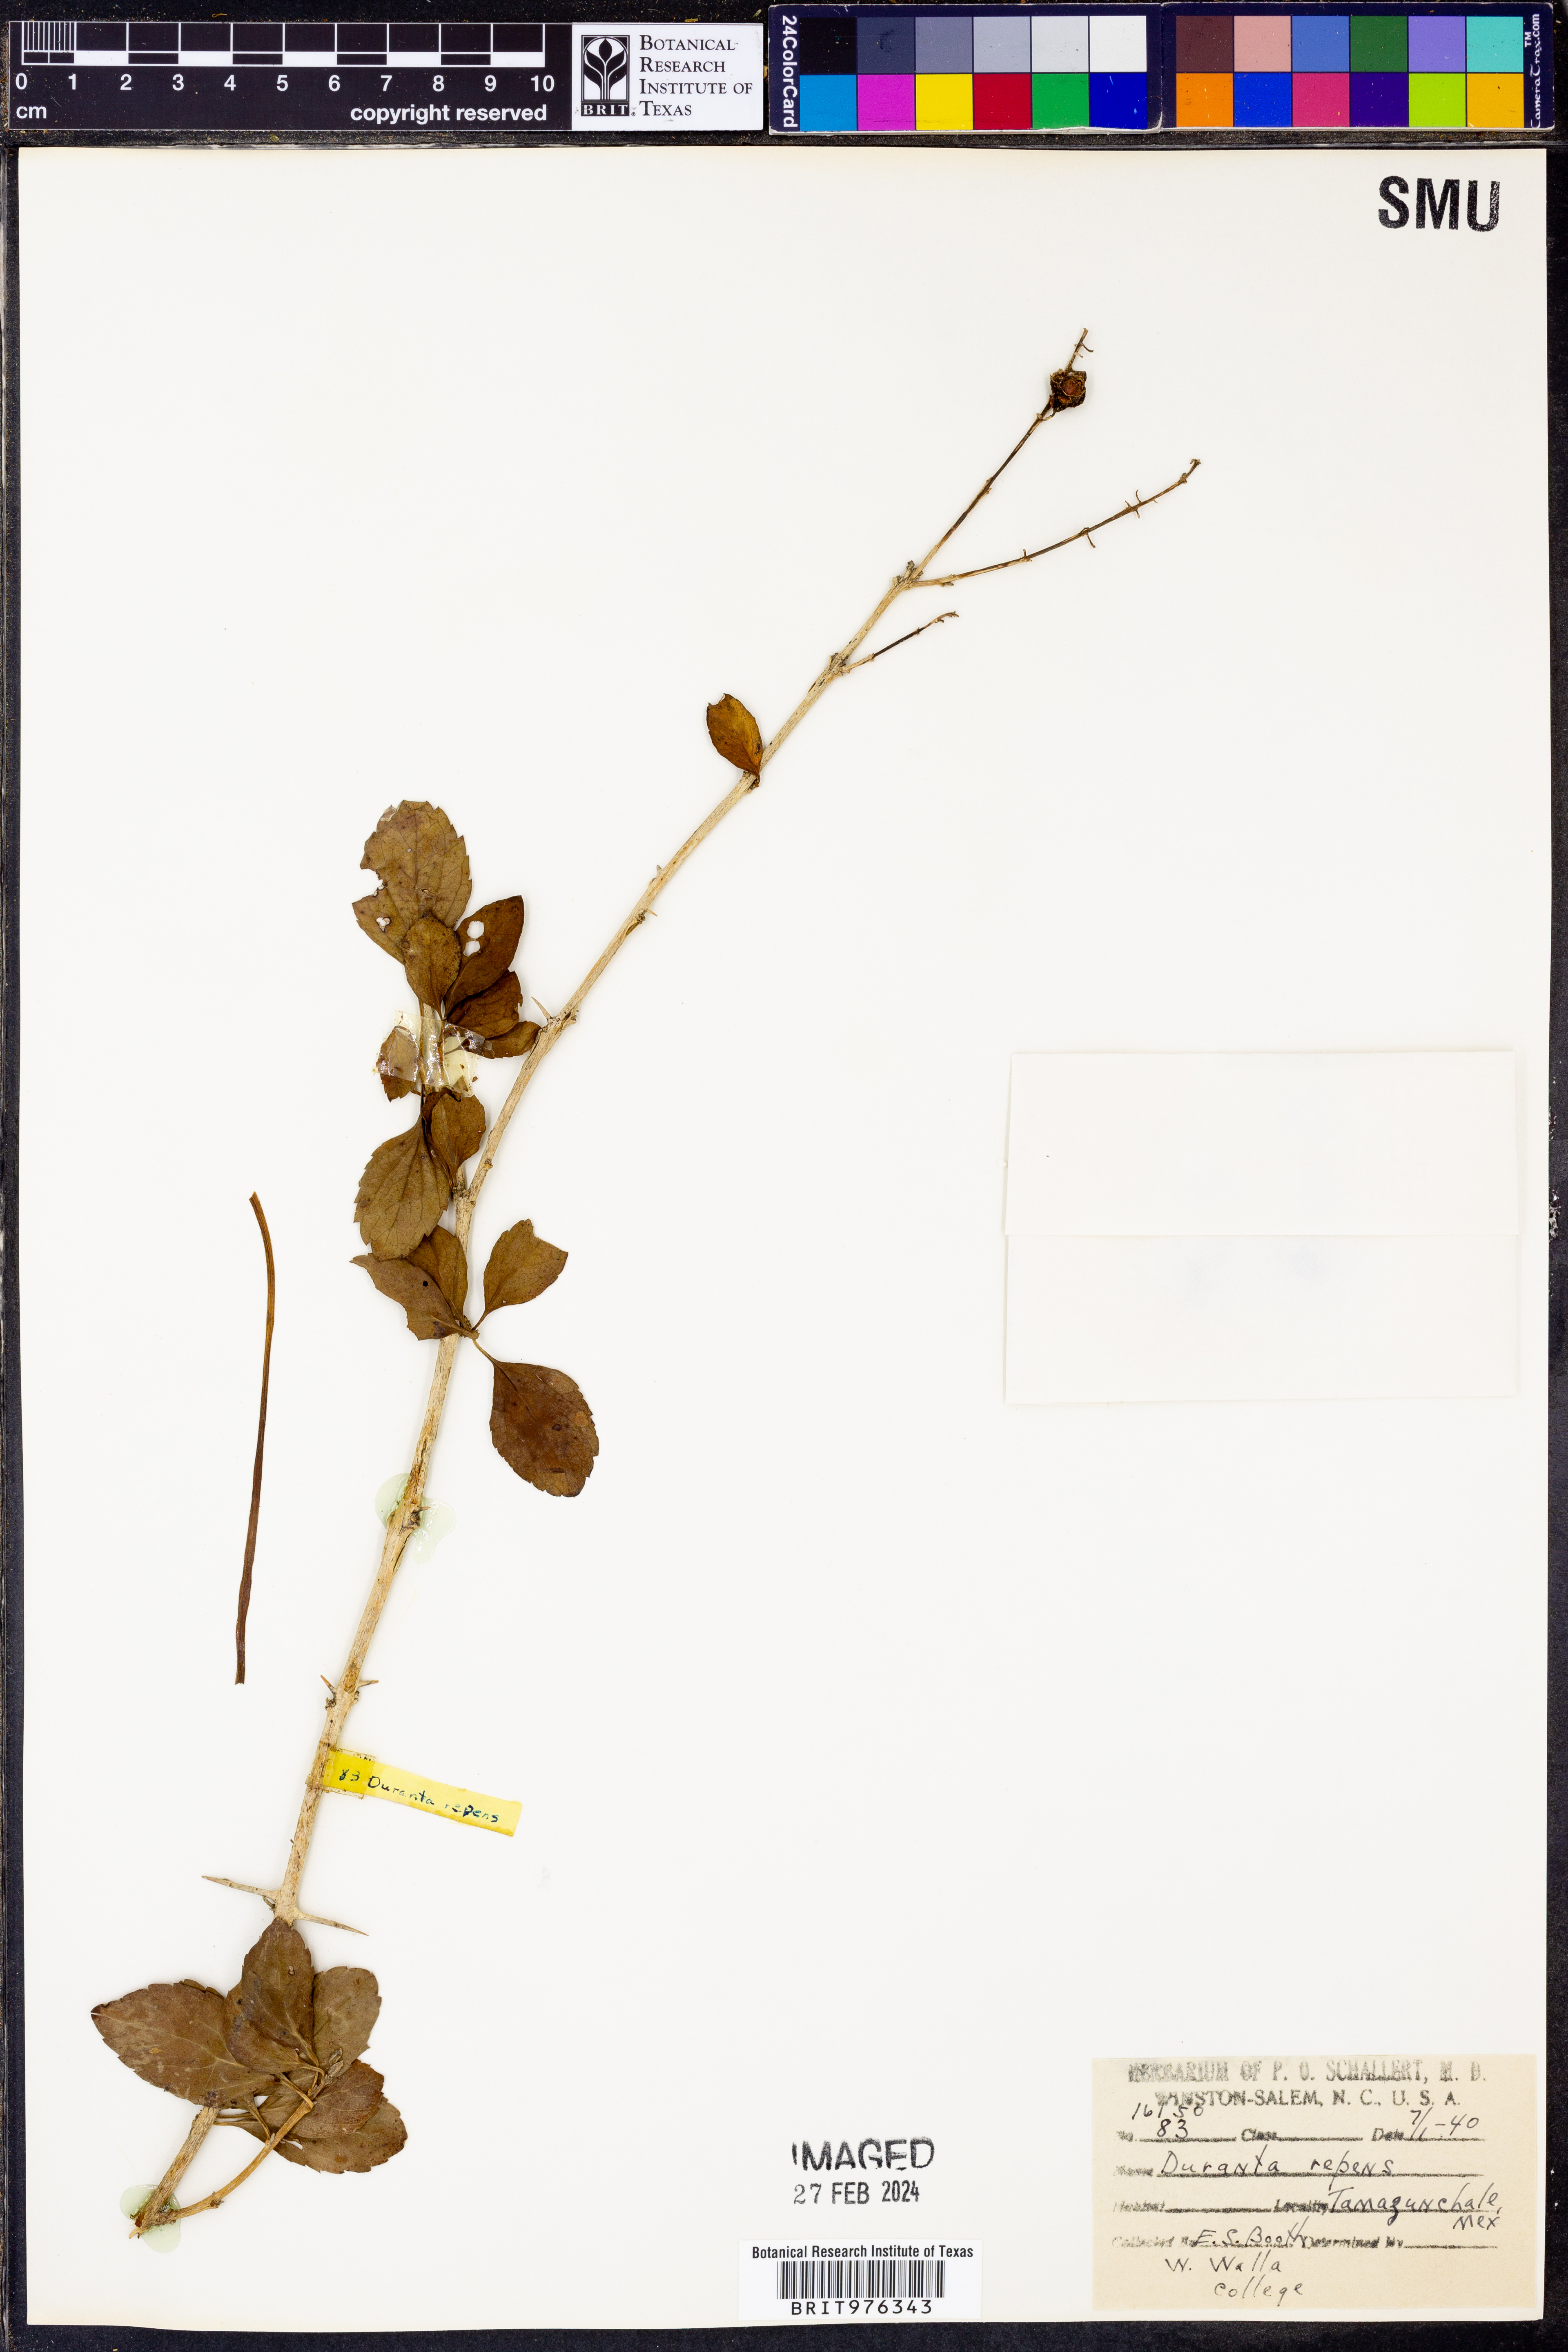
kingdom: Plantae
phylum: Tracheophyta
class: Magnoliopsida
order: Lamiales
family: Verbenaceae
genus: Duranta
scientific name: Duranta
